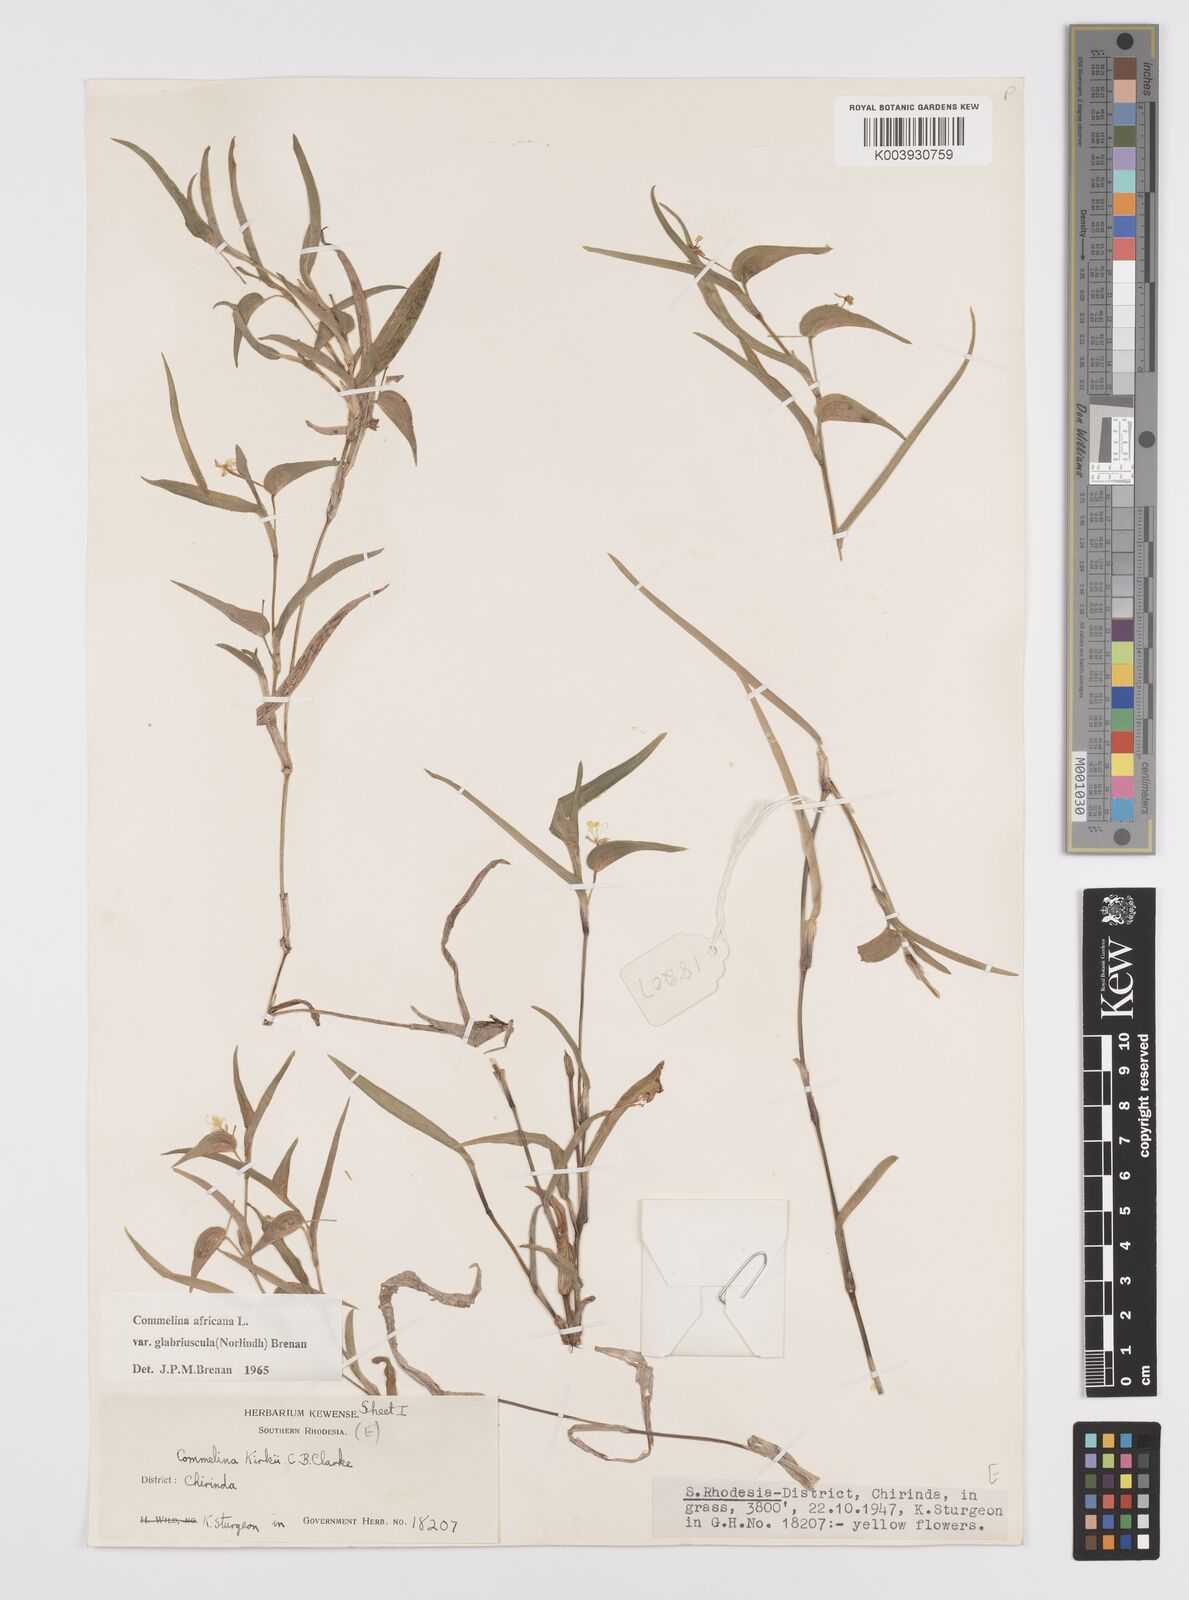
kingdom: Plantae
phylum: Tracheophyta
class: Liliopsida
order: Commelinales
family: Commelinaceae
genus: Commelina
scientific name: Commelina africana
